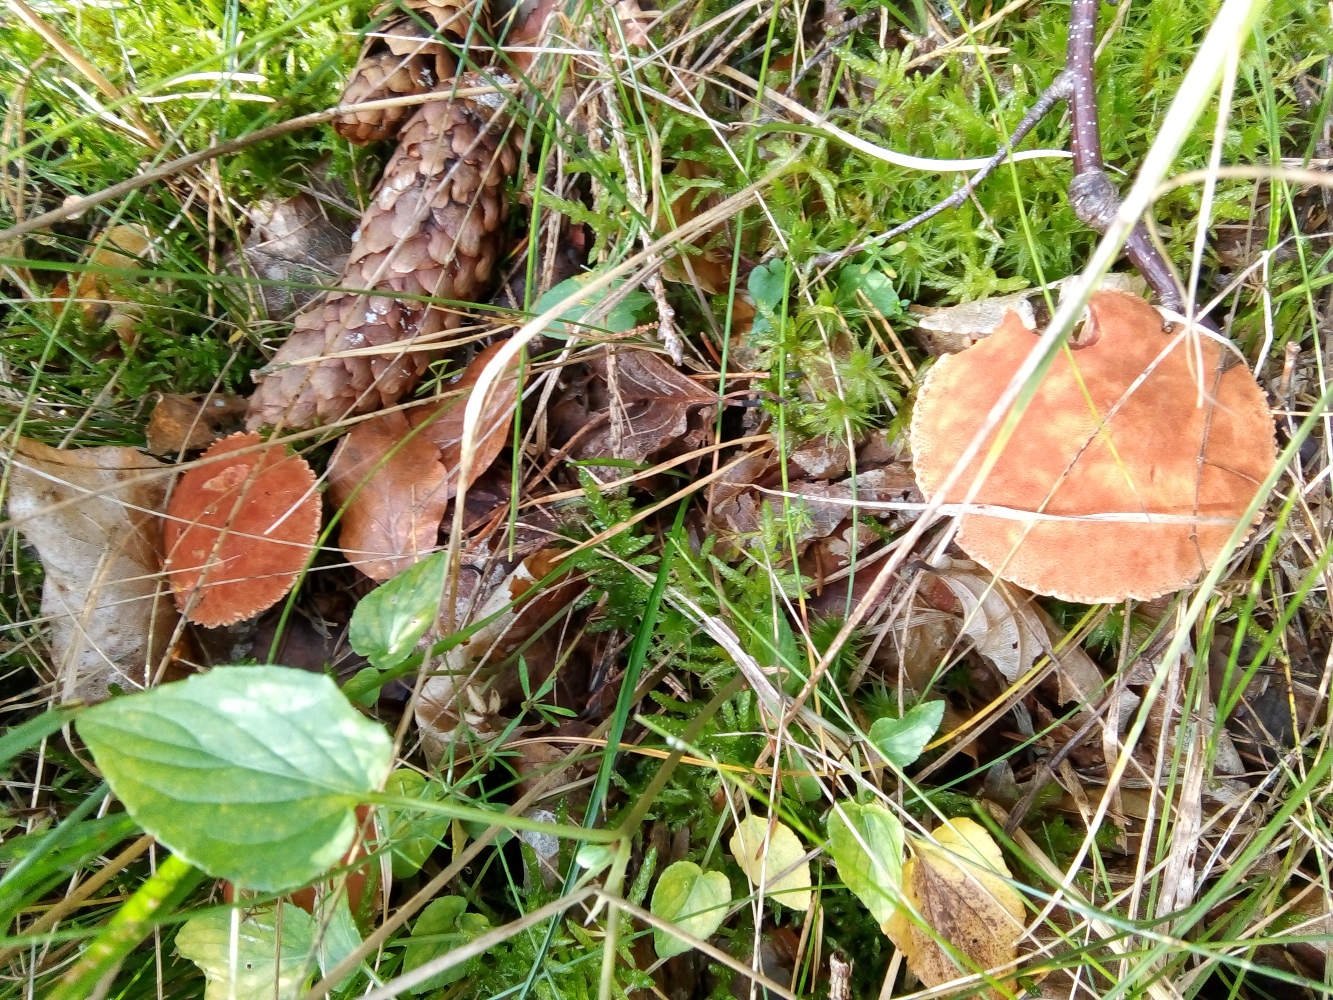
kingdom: Fungi
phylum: Basidiomycota
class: Agaricomycetes
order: Agaricales
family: Agaricaceae
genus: Cystodermella
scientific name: Cystodermella
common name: grynhat
